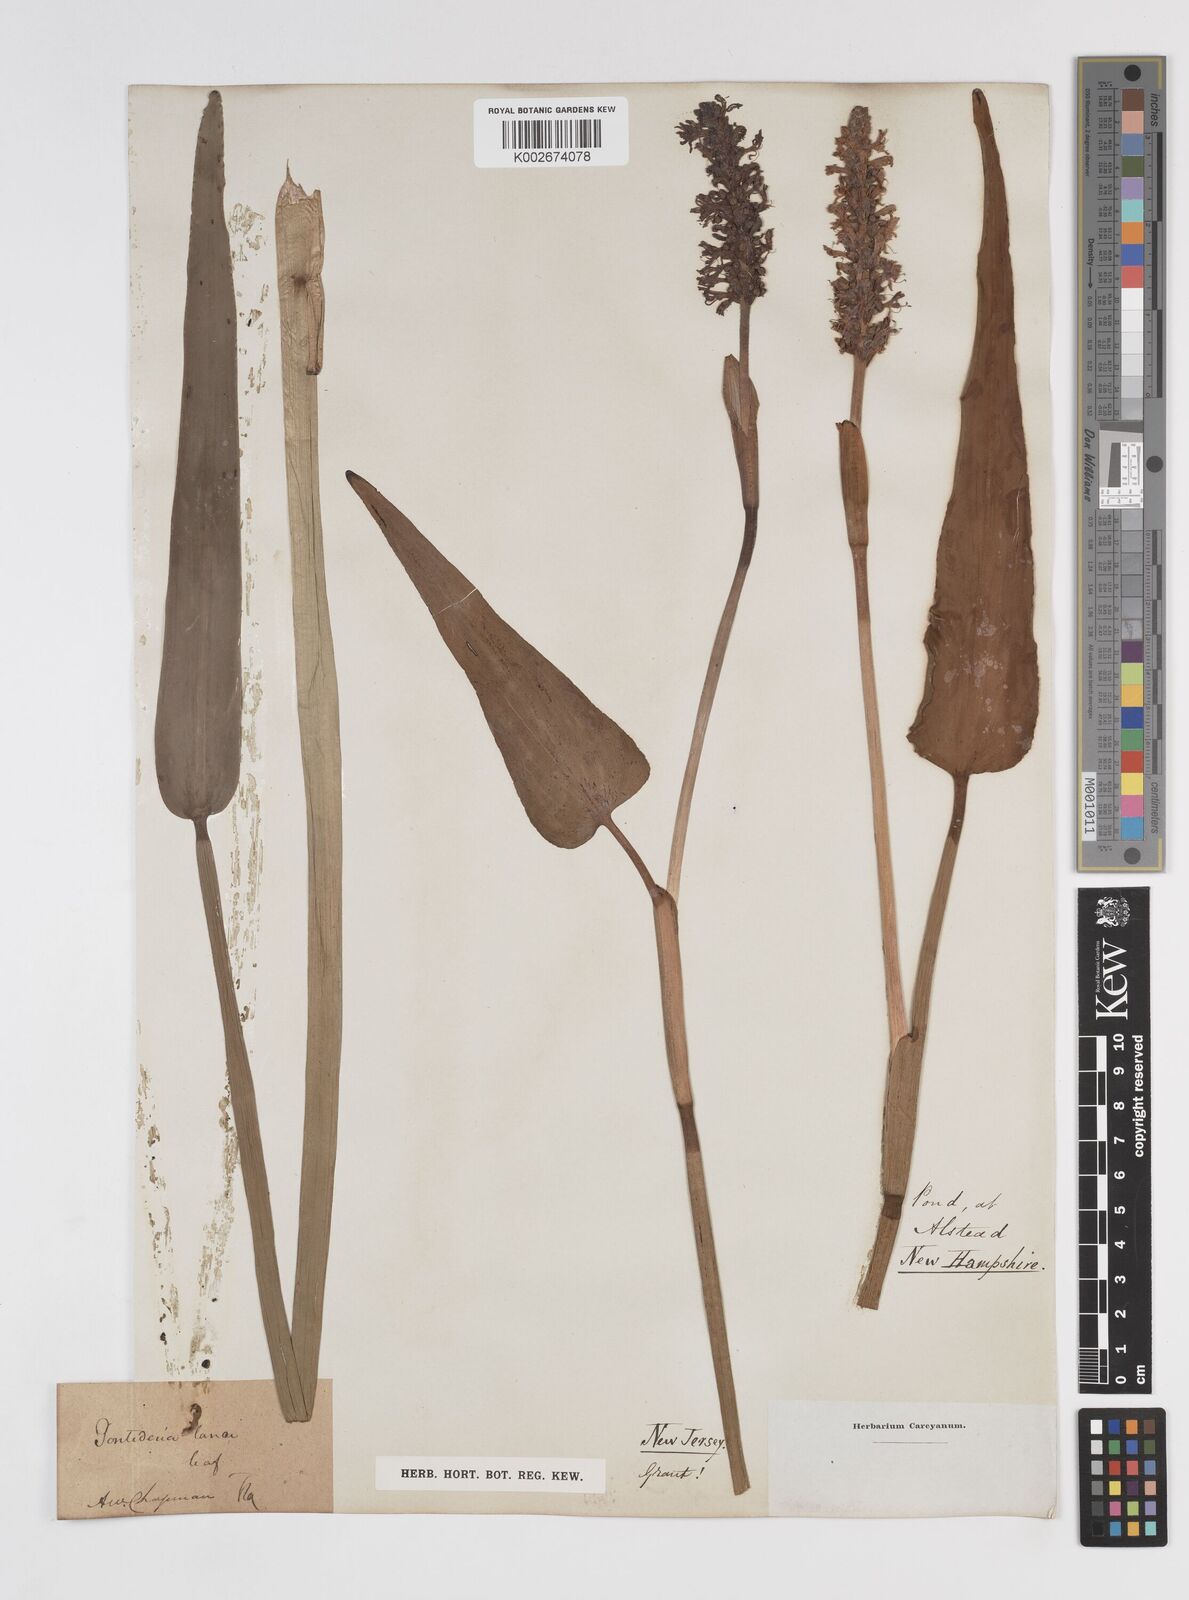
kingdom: Plantae
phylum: Tracheophyta
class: Liliopsida
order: Commelinales
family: Pontederiaceae
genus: Pontederia
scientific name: Pontederia
